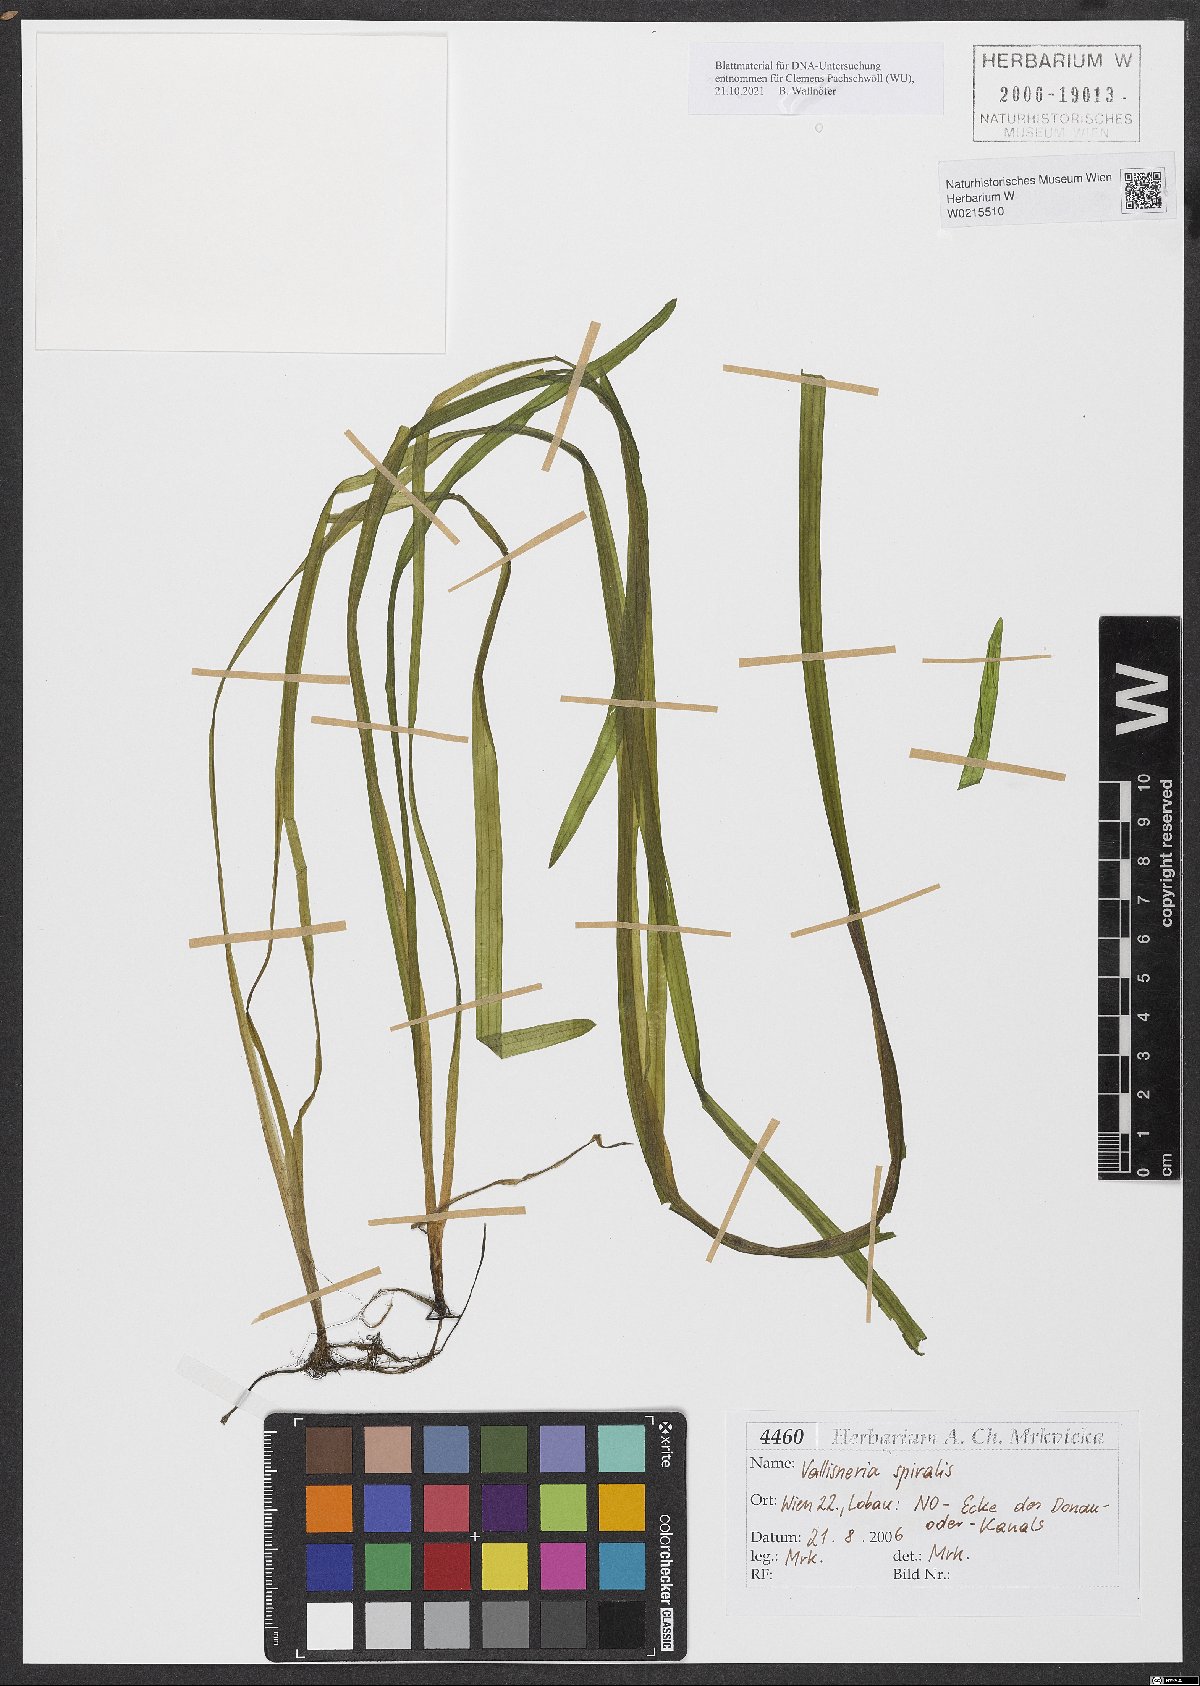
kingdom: Plantae
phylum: Tracheophyta
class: Liliopsida
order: Alismatales
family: Hydrocharitaceae
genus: Vallisneria
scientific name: Vallisneria spiralis
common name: Tapegrass
